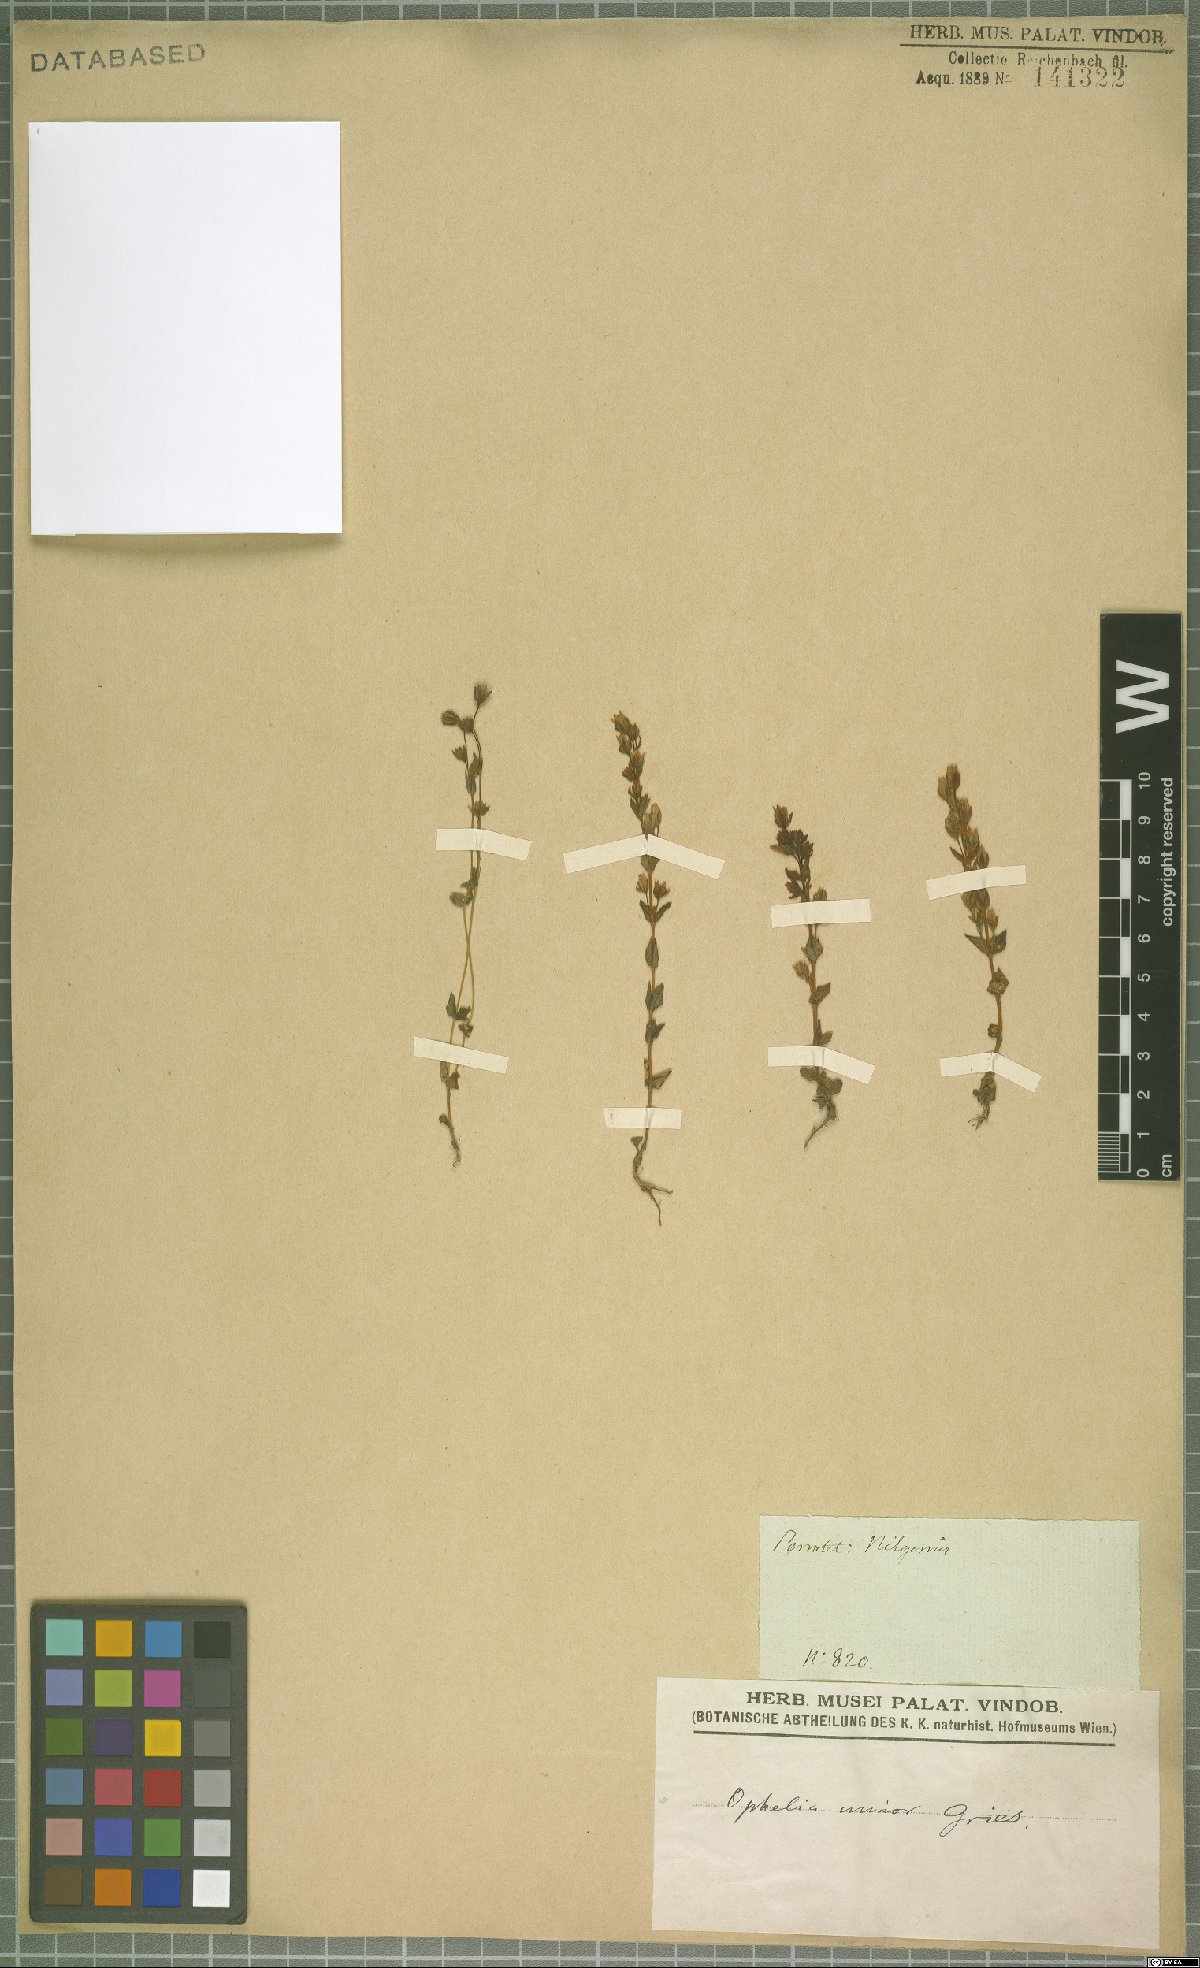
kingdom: Plantae
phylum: Tracheophyta
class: Magnoliopsida
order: Gentianales
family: Gentianaceae
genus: Lomatogonium
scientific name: Lomatogonium minus
